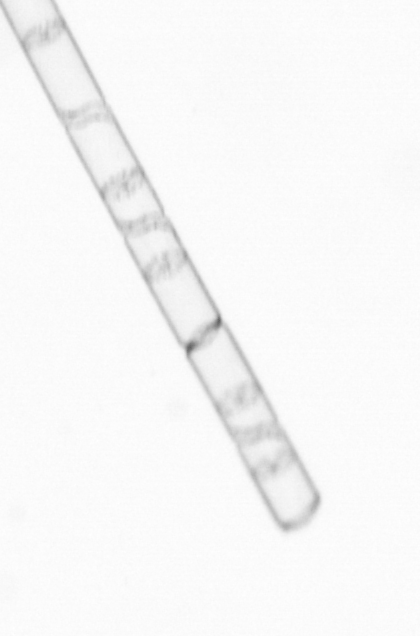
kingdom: Chromista
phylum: Ochrophyta
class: Bacillariophyceae
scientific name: Bacillariophyceae
